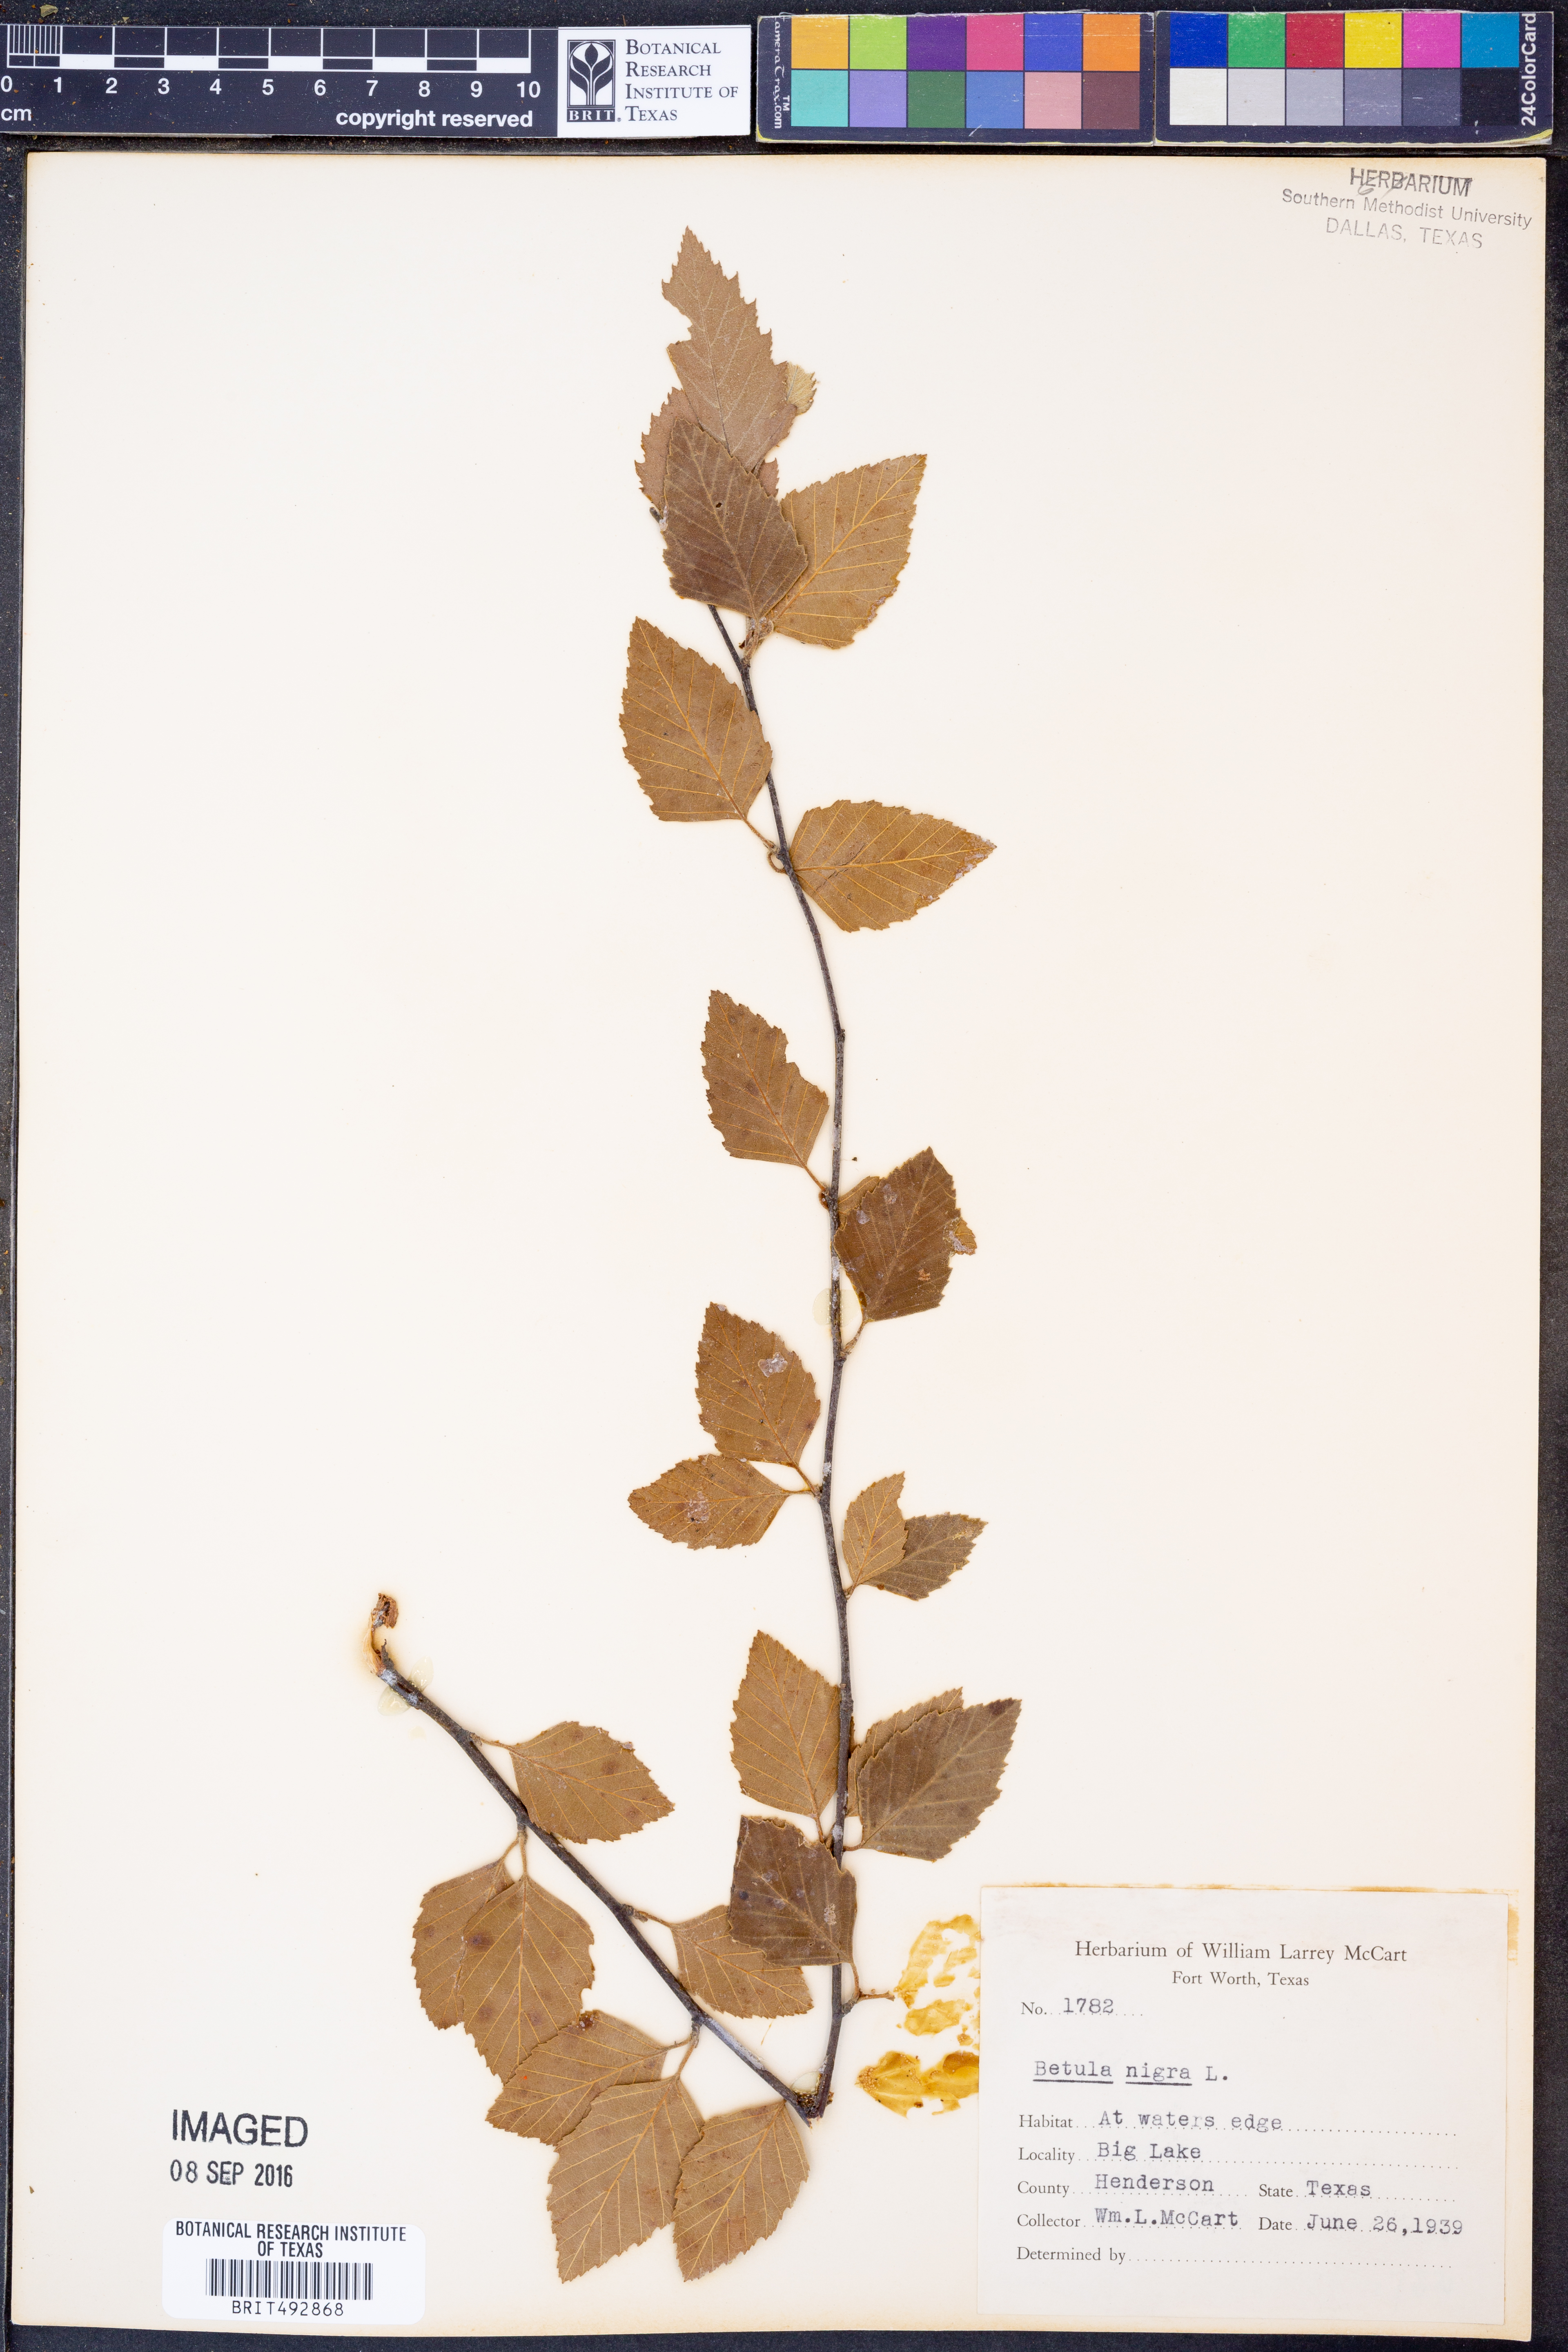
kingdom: Plantae
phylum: Tracheophyta
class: Magnoliopsida
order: Fagales
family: Betulaceae
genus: Betula
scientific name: Betula nigra
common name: Black birch
